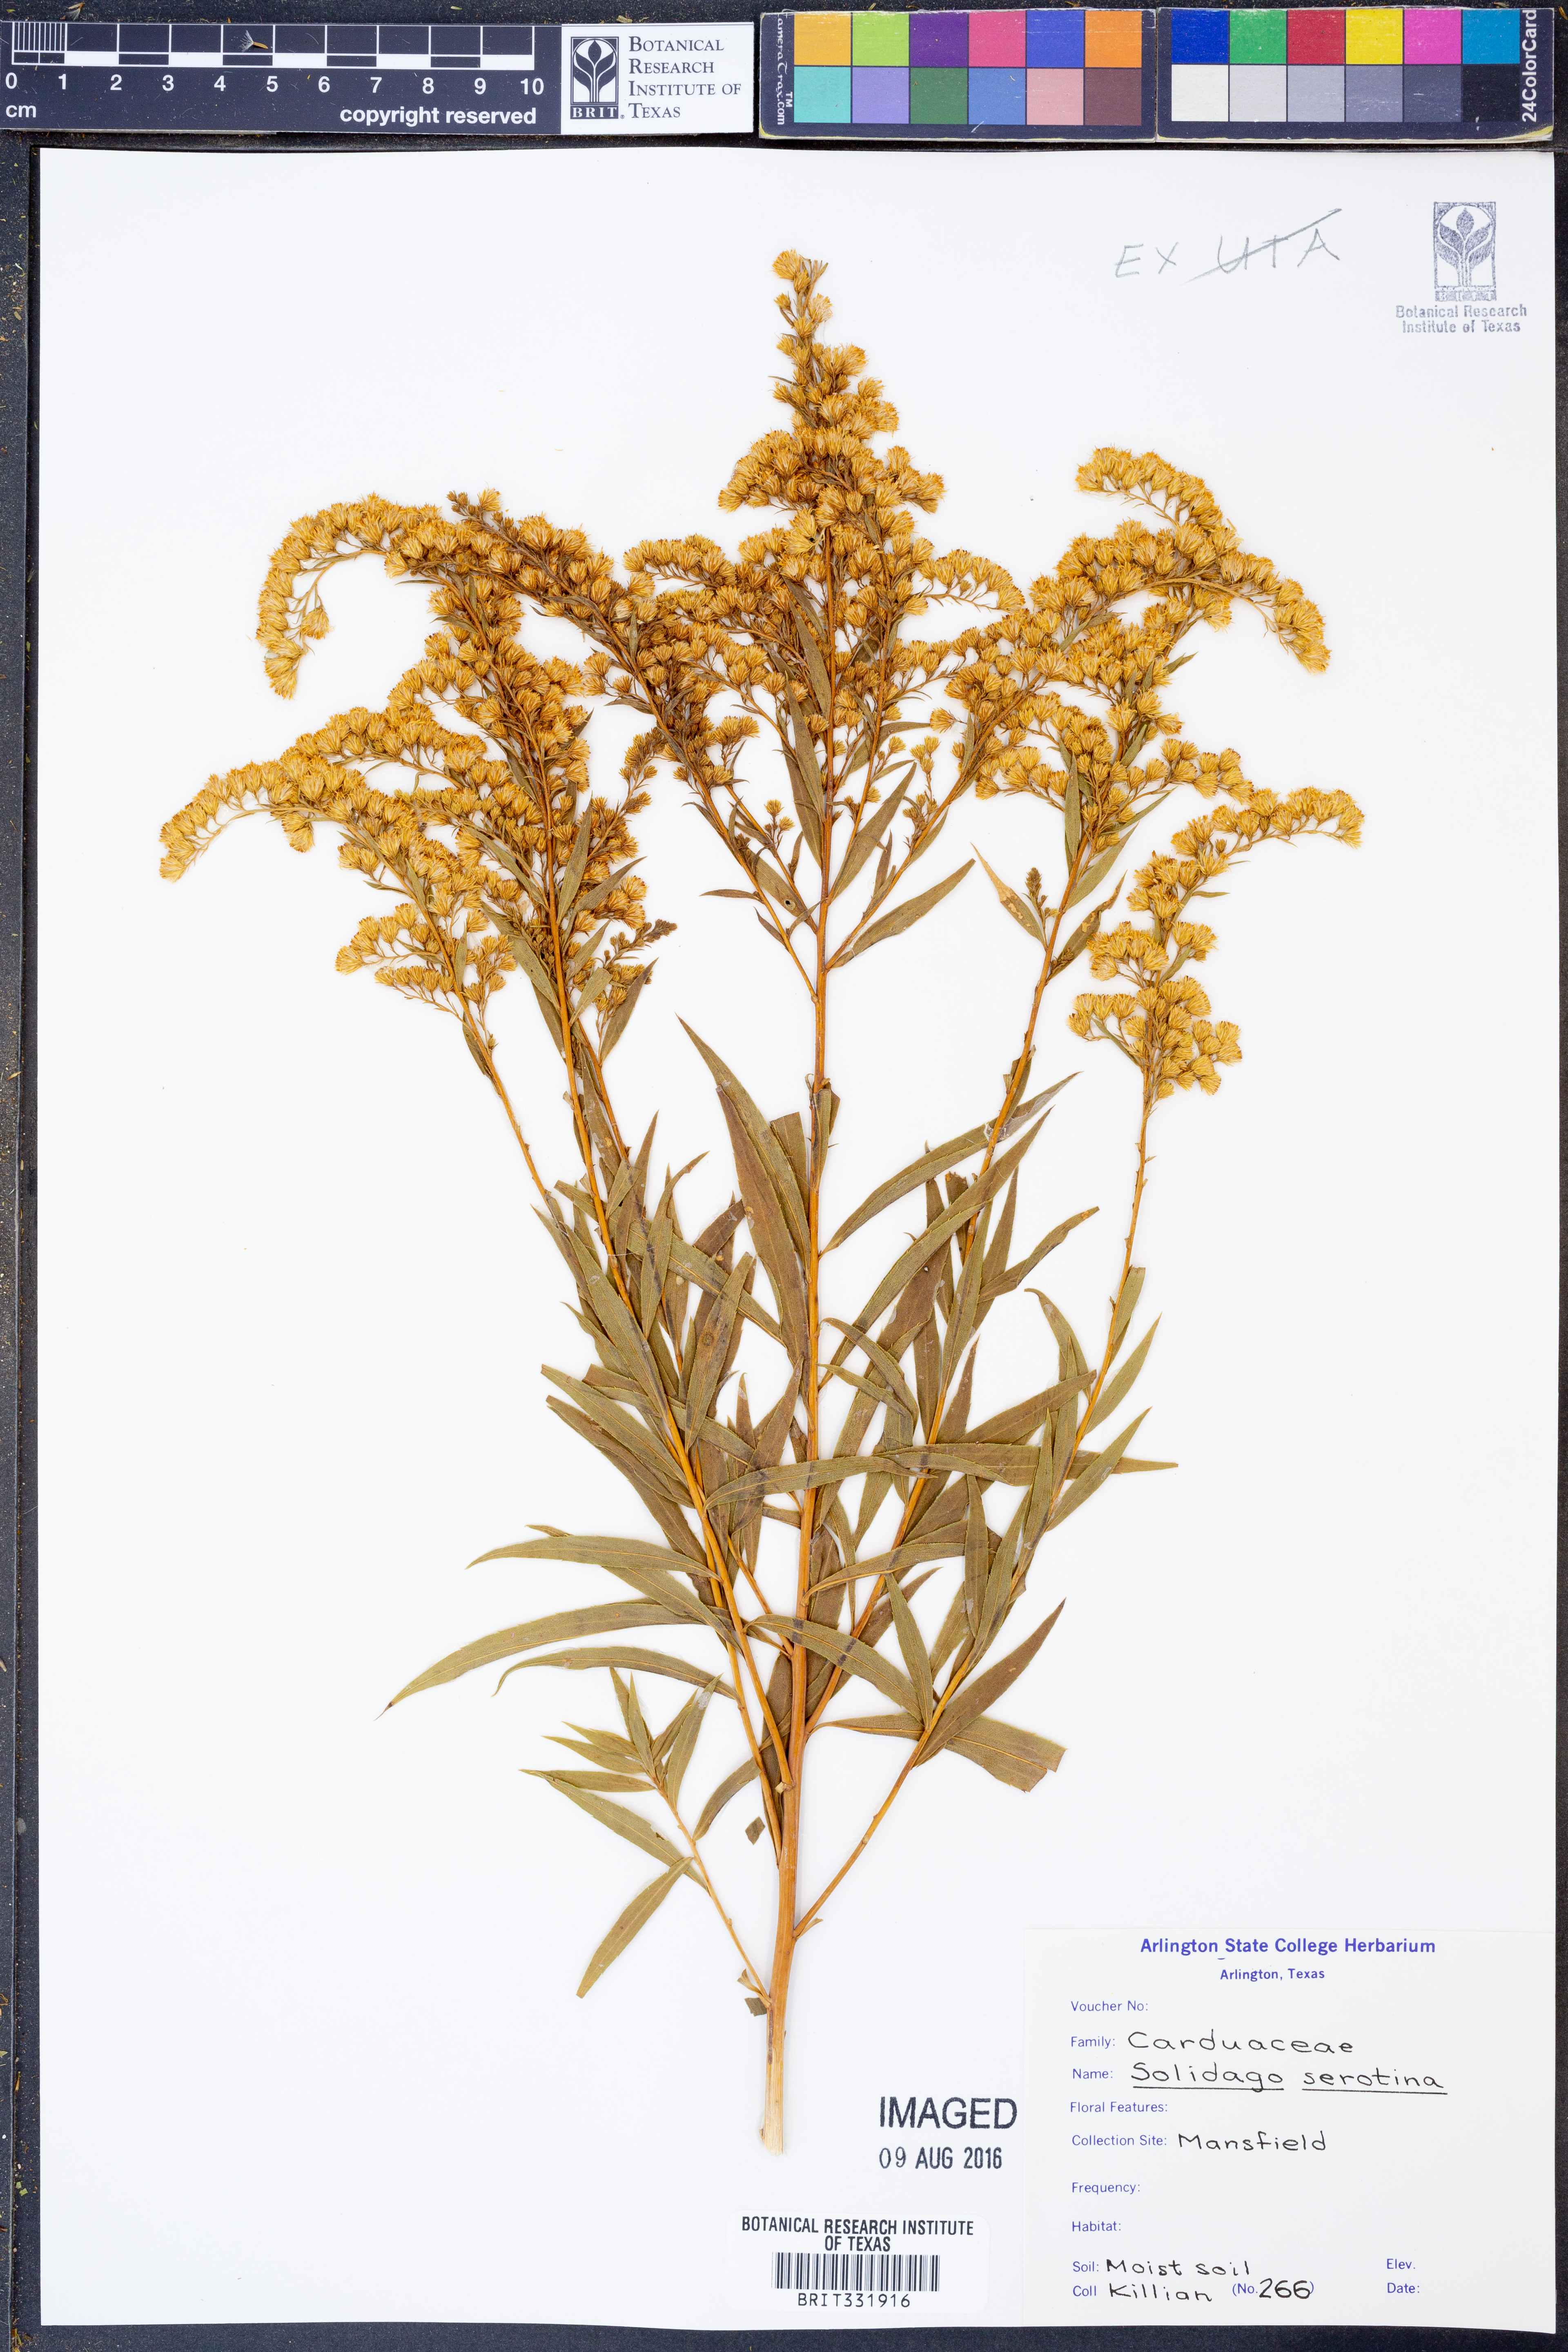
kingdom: Plantae
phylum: Tracheophyta
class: Magnoliopsida
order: Asterales
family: Asteraceae
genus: Solidago
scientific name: Solidago gigantea
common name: Giant goldenrod
